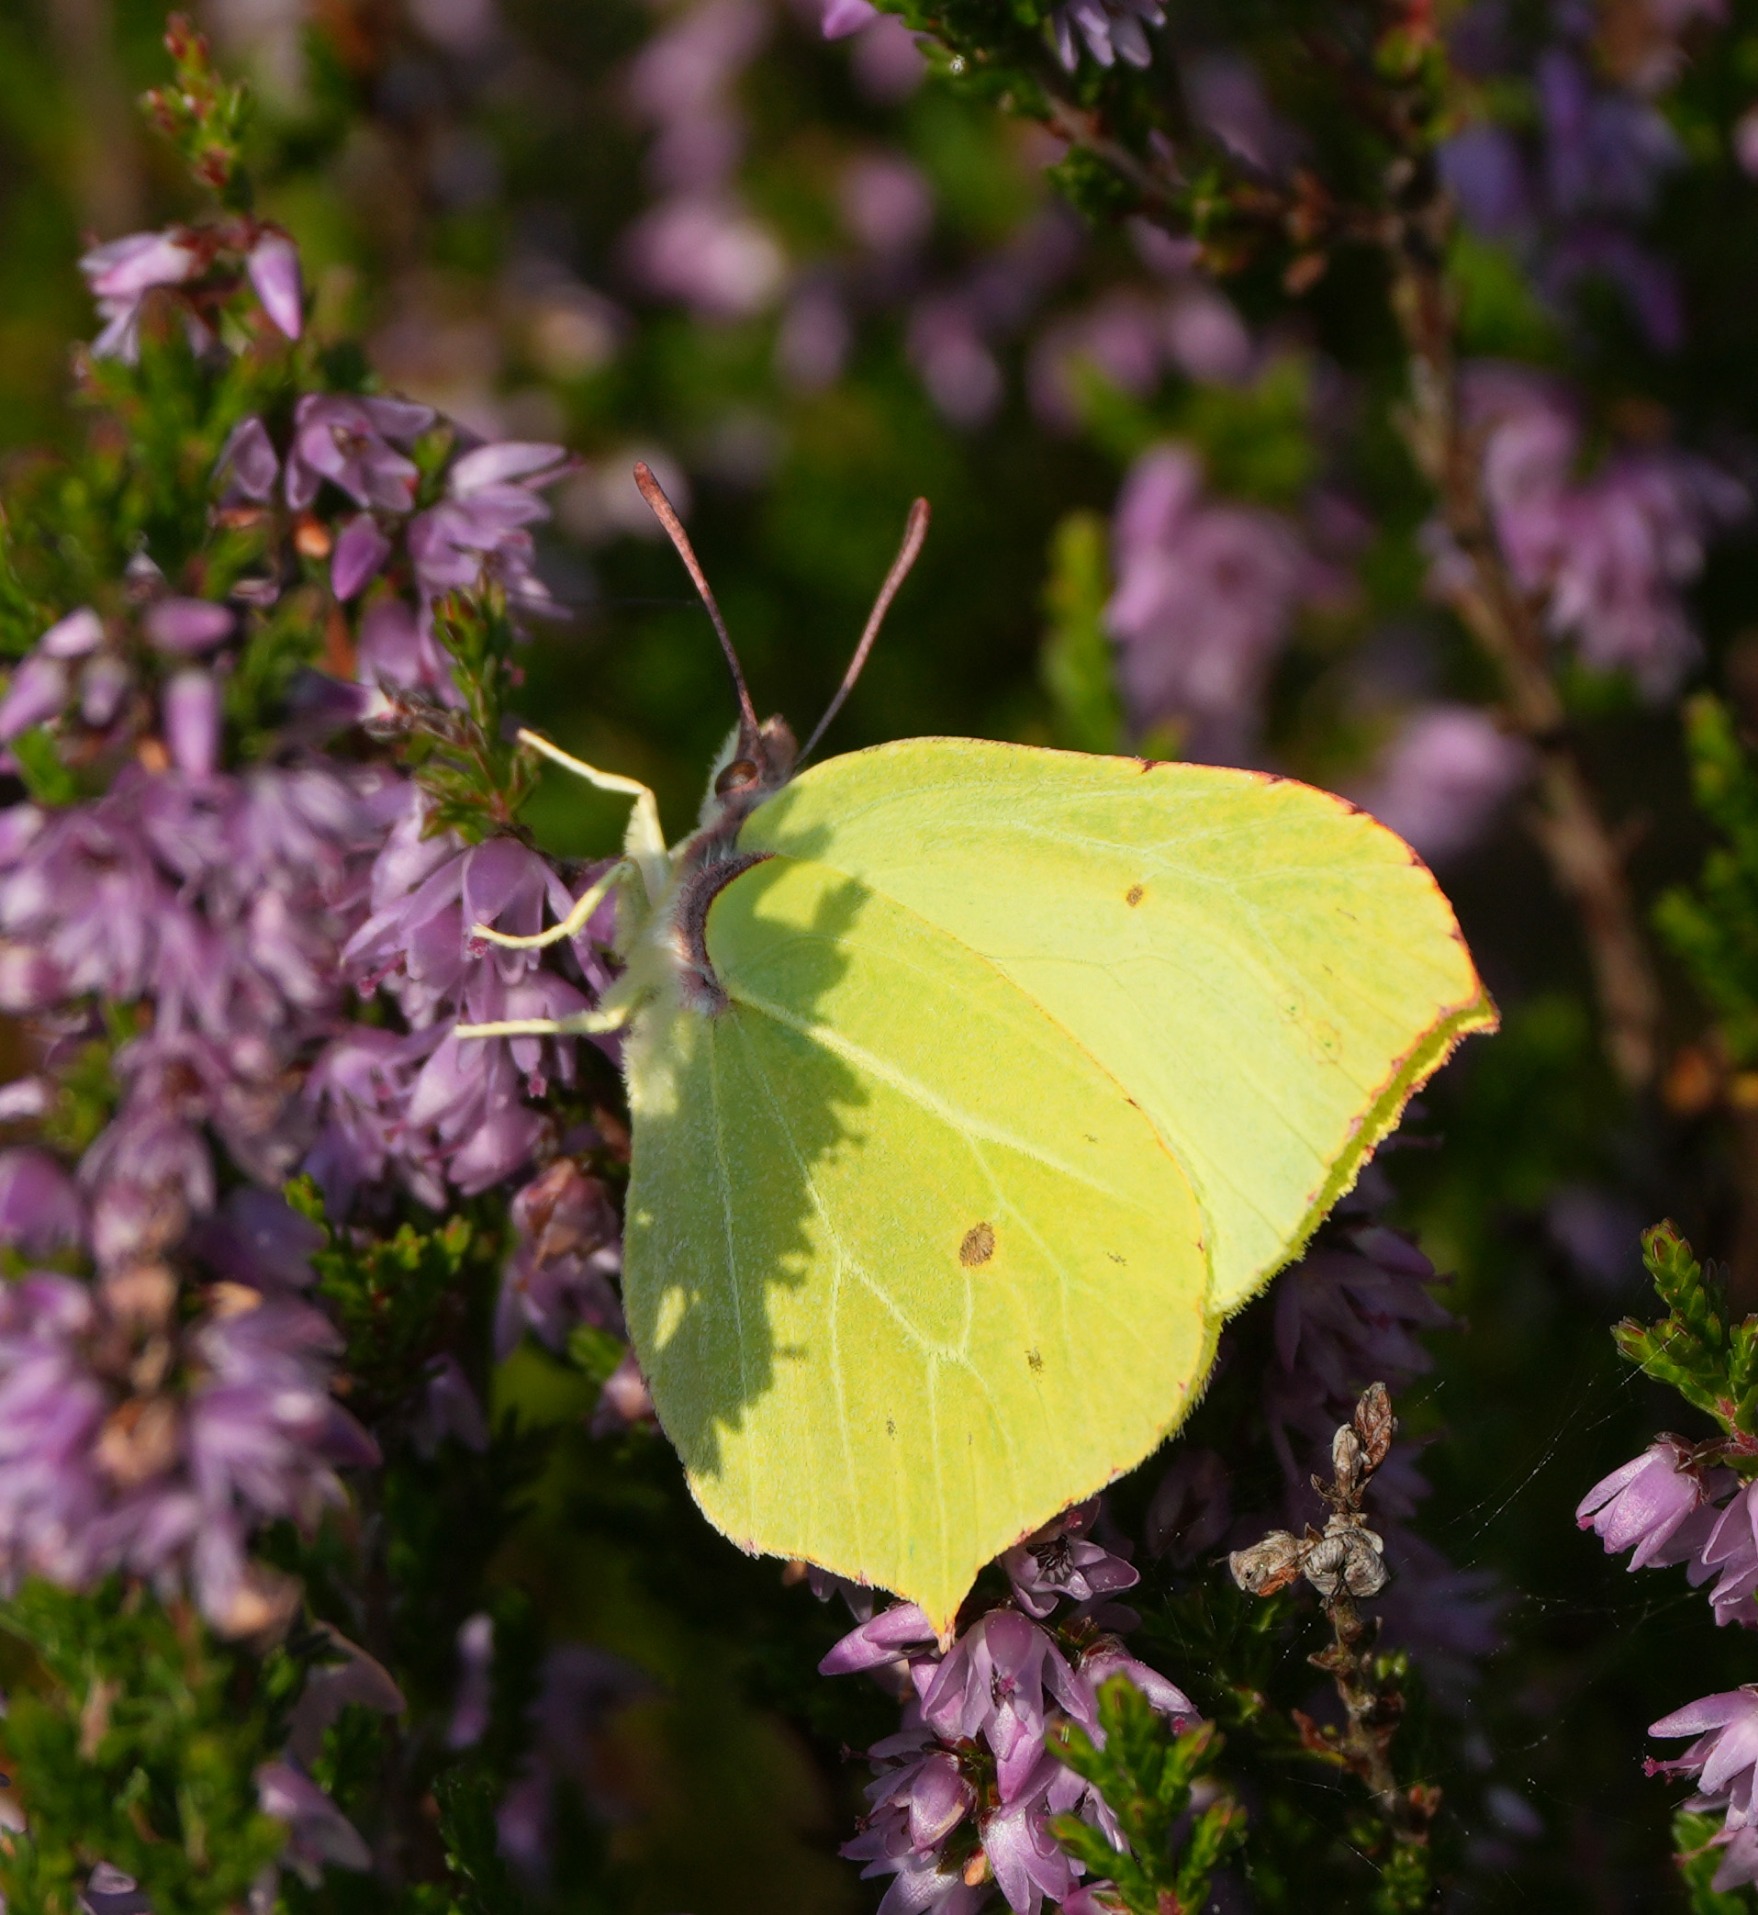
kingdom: Animalia
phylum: Arthropoda
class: Insecta
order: Lepidoptera
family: Pieridae
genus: Gonepteryx
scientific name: Gonepteryx rhamni
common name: Citronsommerfugl
